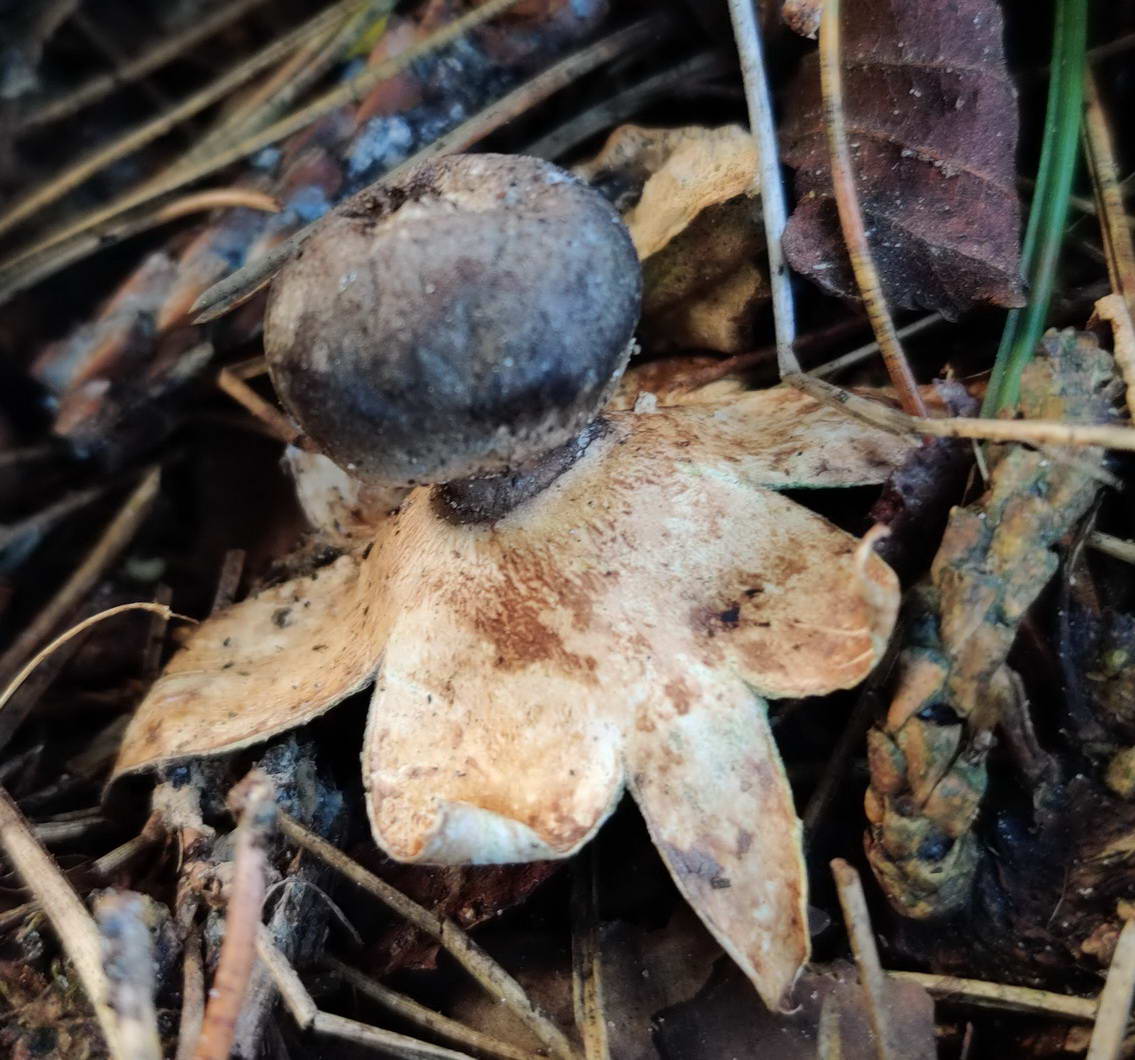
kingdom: Fungi
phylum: Basidiomycota
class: Agaricomycetes
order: Geastrales
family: Geastraceae
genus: Geastrum
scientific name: Geastrum coronatum
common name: mørk stjernebold
